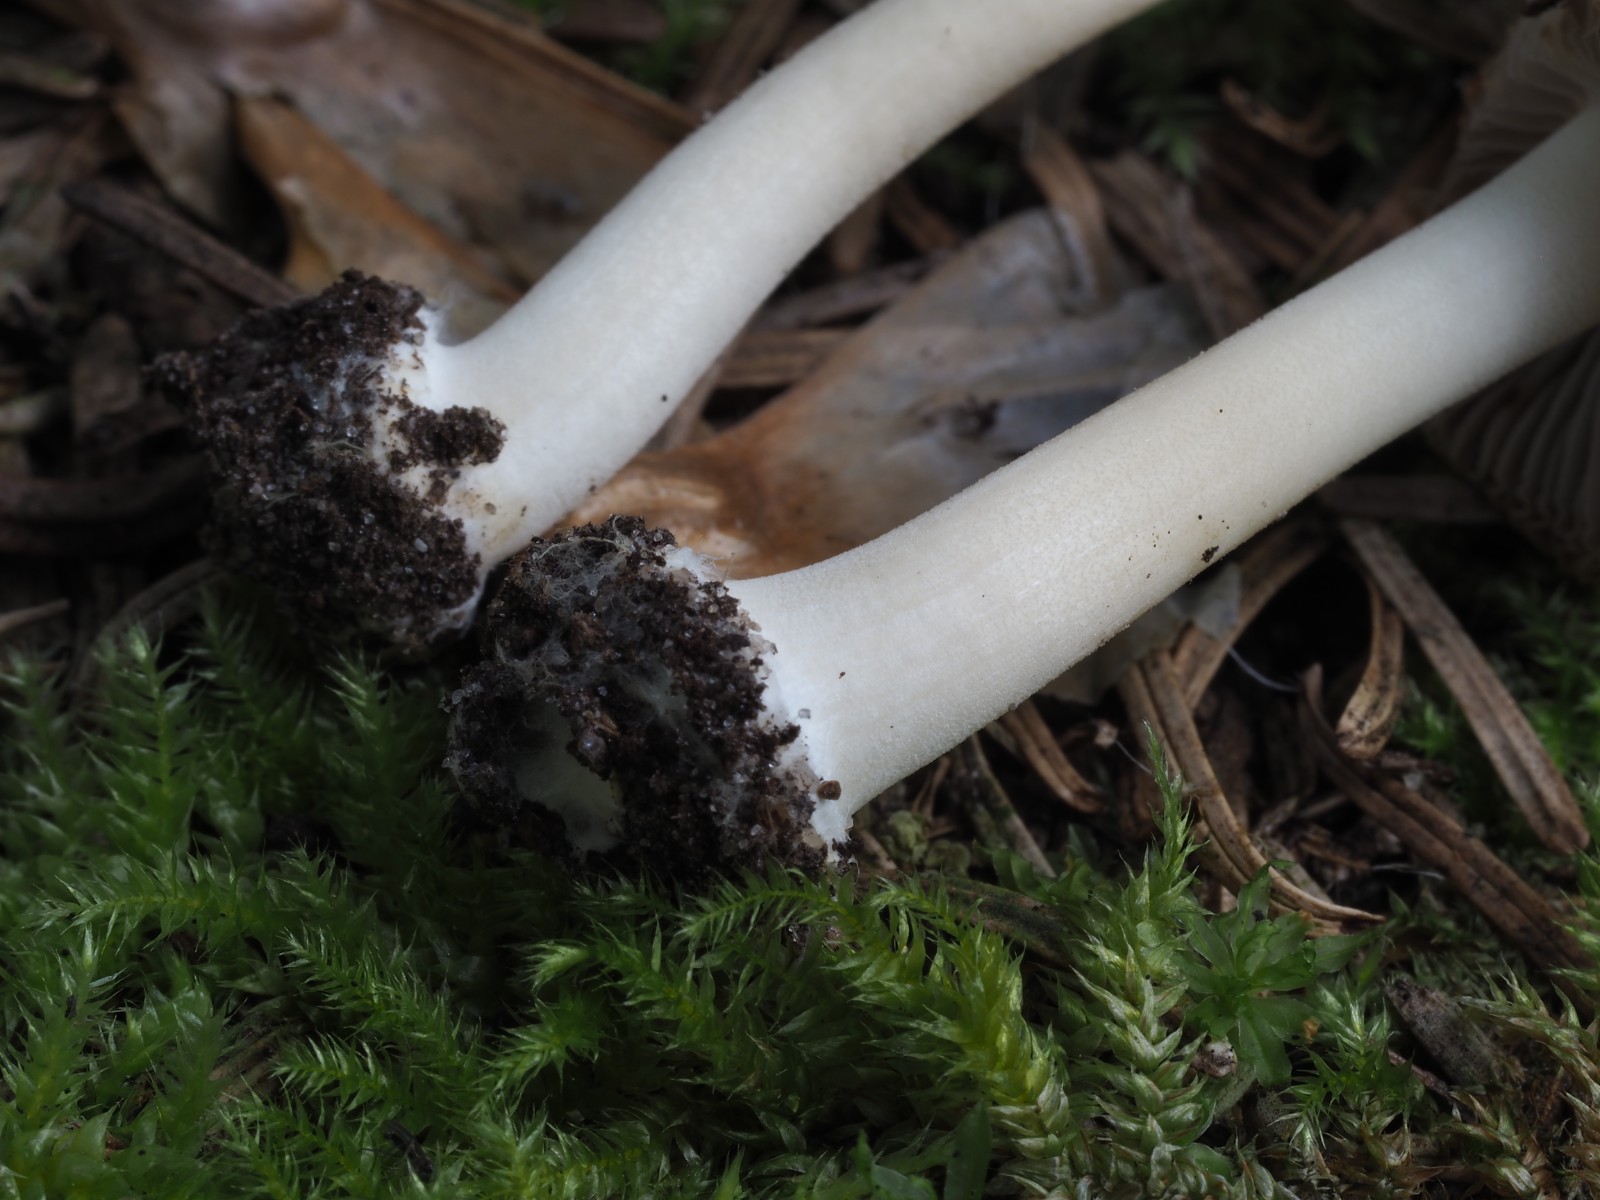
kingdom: Fungi
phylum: Basidiomycota
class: Agaricomycetes
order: Agaricales
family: Inocybaceae
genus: Inocybe
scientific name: Inocybe mixtilis
